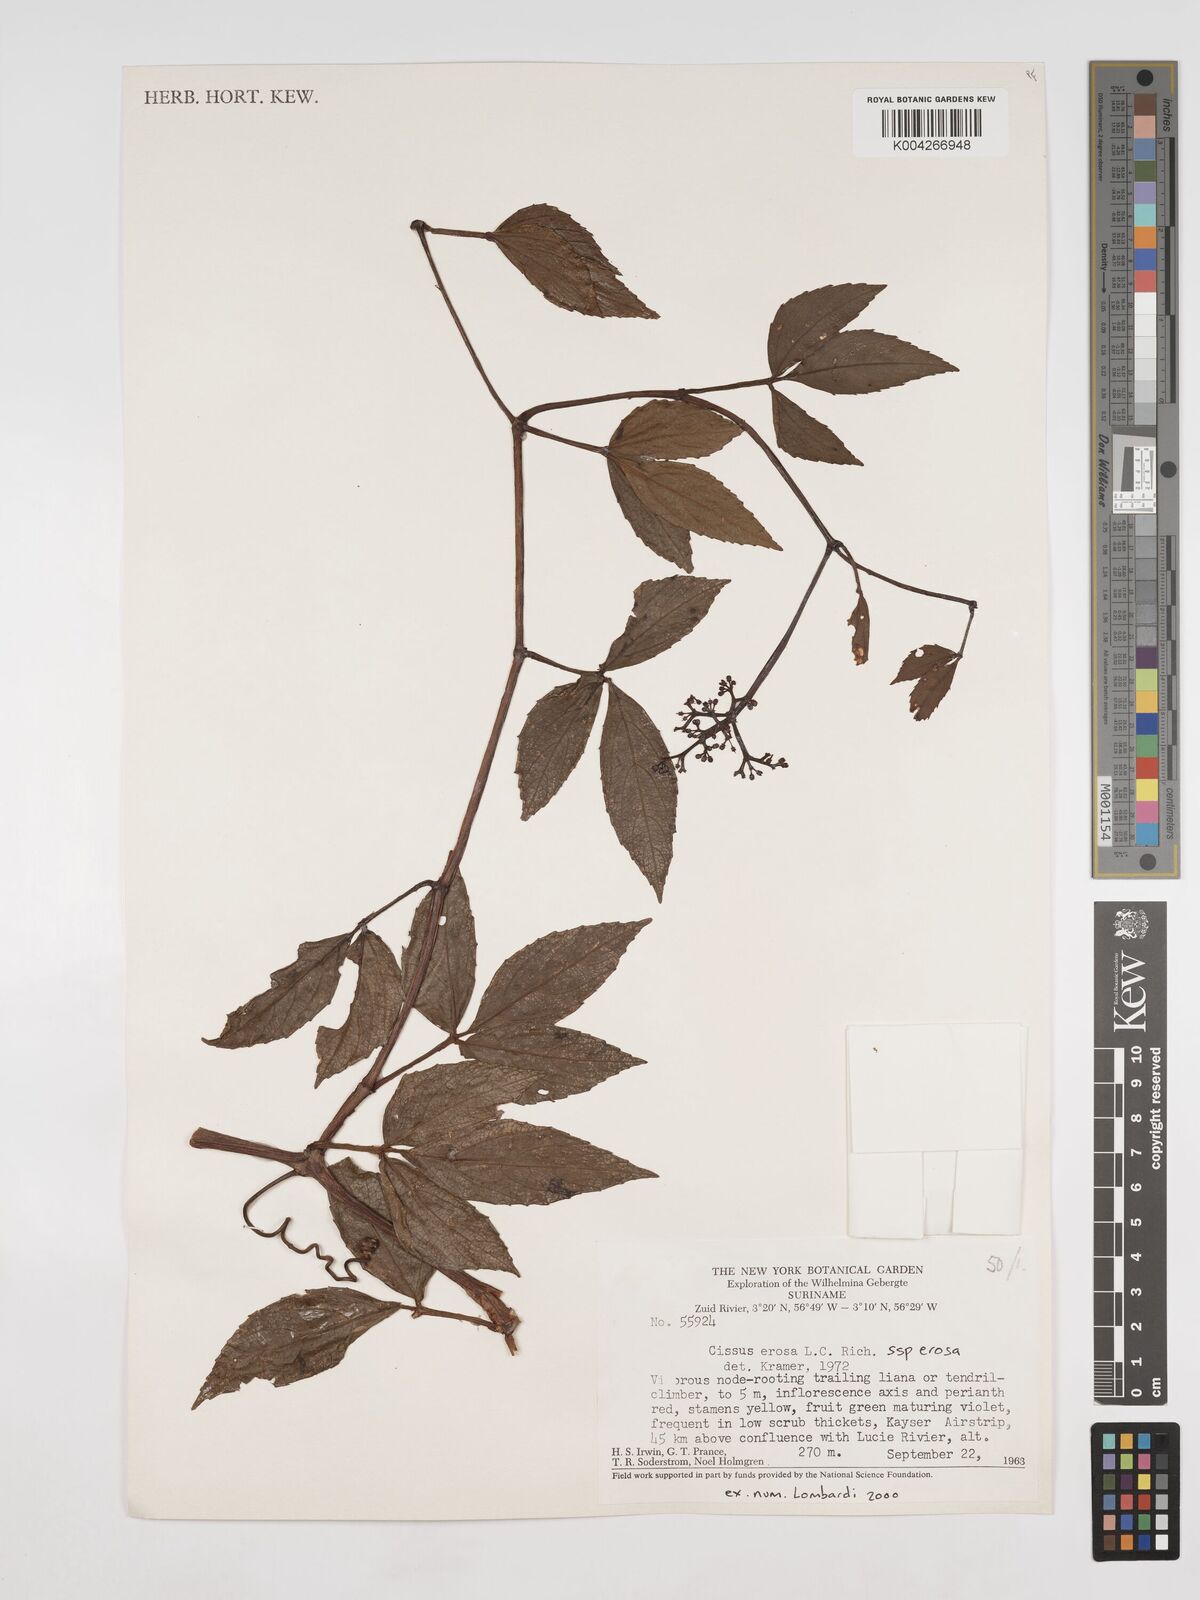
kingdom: Plantae
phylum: Tracheophyta
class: Magnoliopsida
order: Vitales
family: Vitaceae
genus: Cissus
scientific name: Cissus erosa
